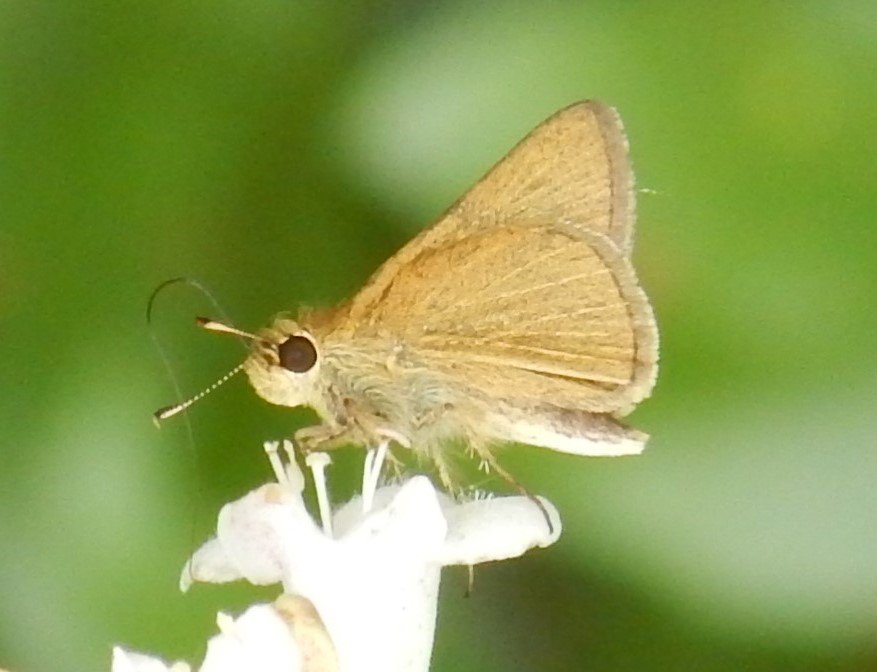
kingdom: Animalia
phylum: Arthropoda
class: Insecta
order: Lepidoptera
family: Hesperiidae
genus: Nastra
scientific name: Nastra lherminier
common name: Swarthy Skipper
